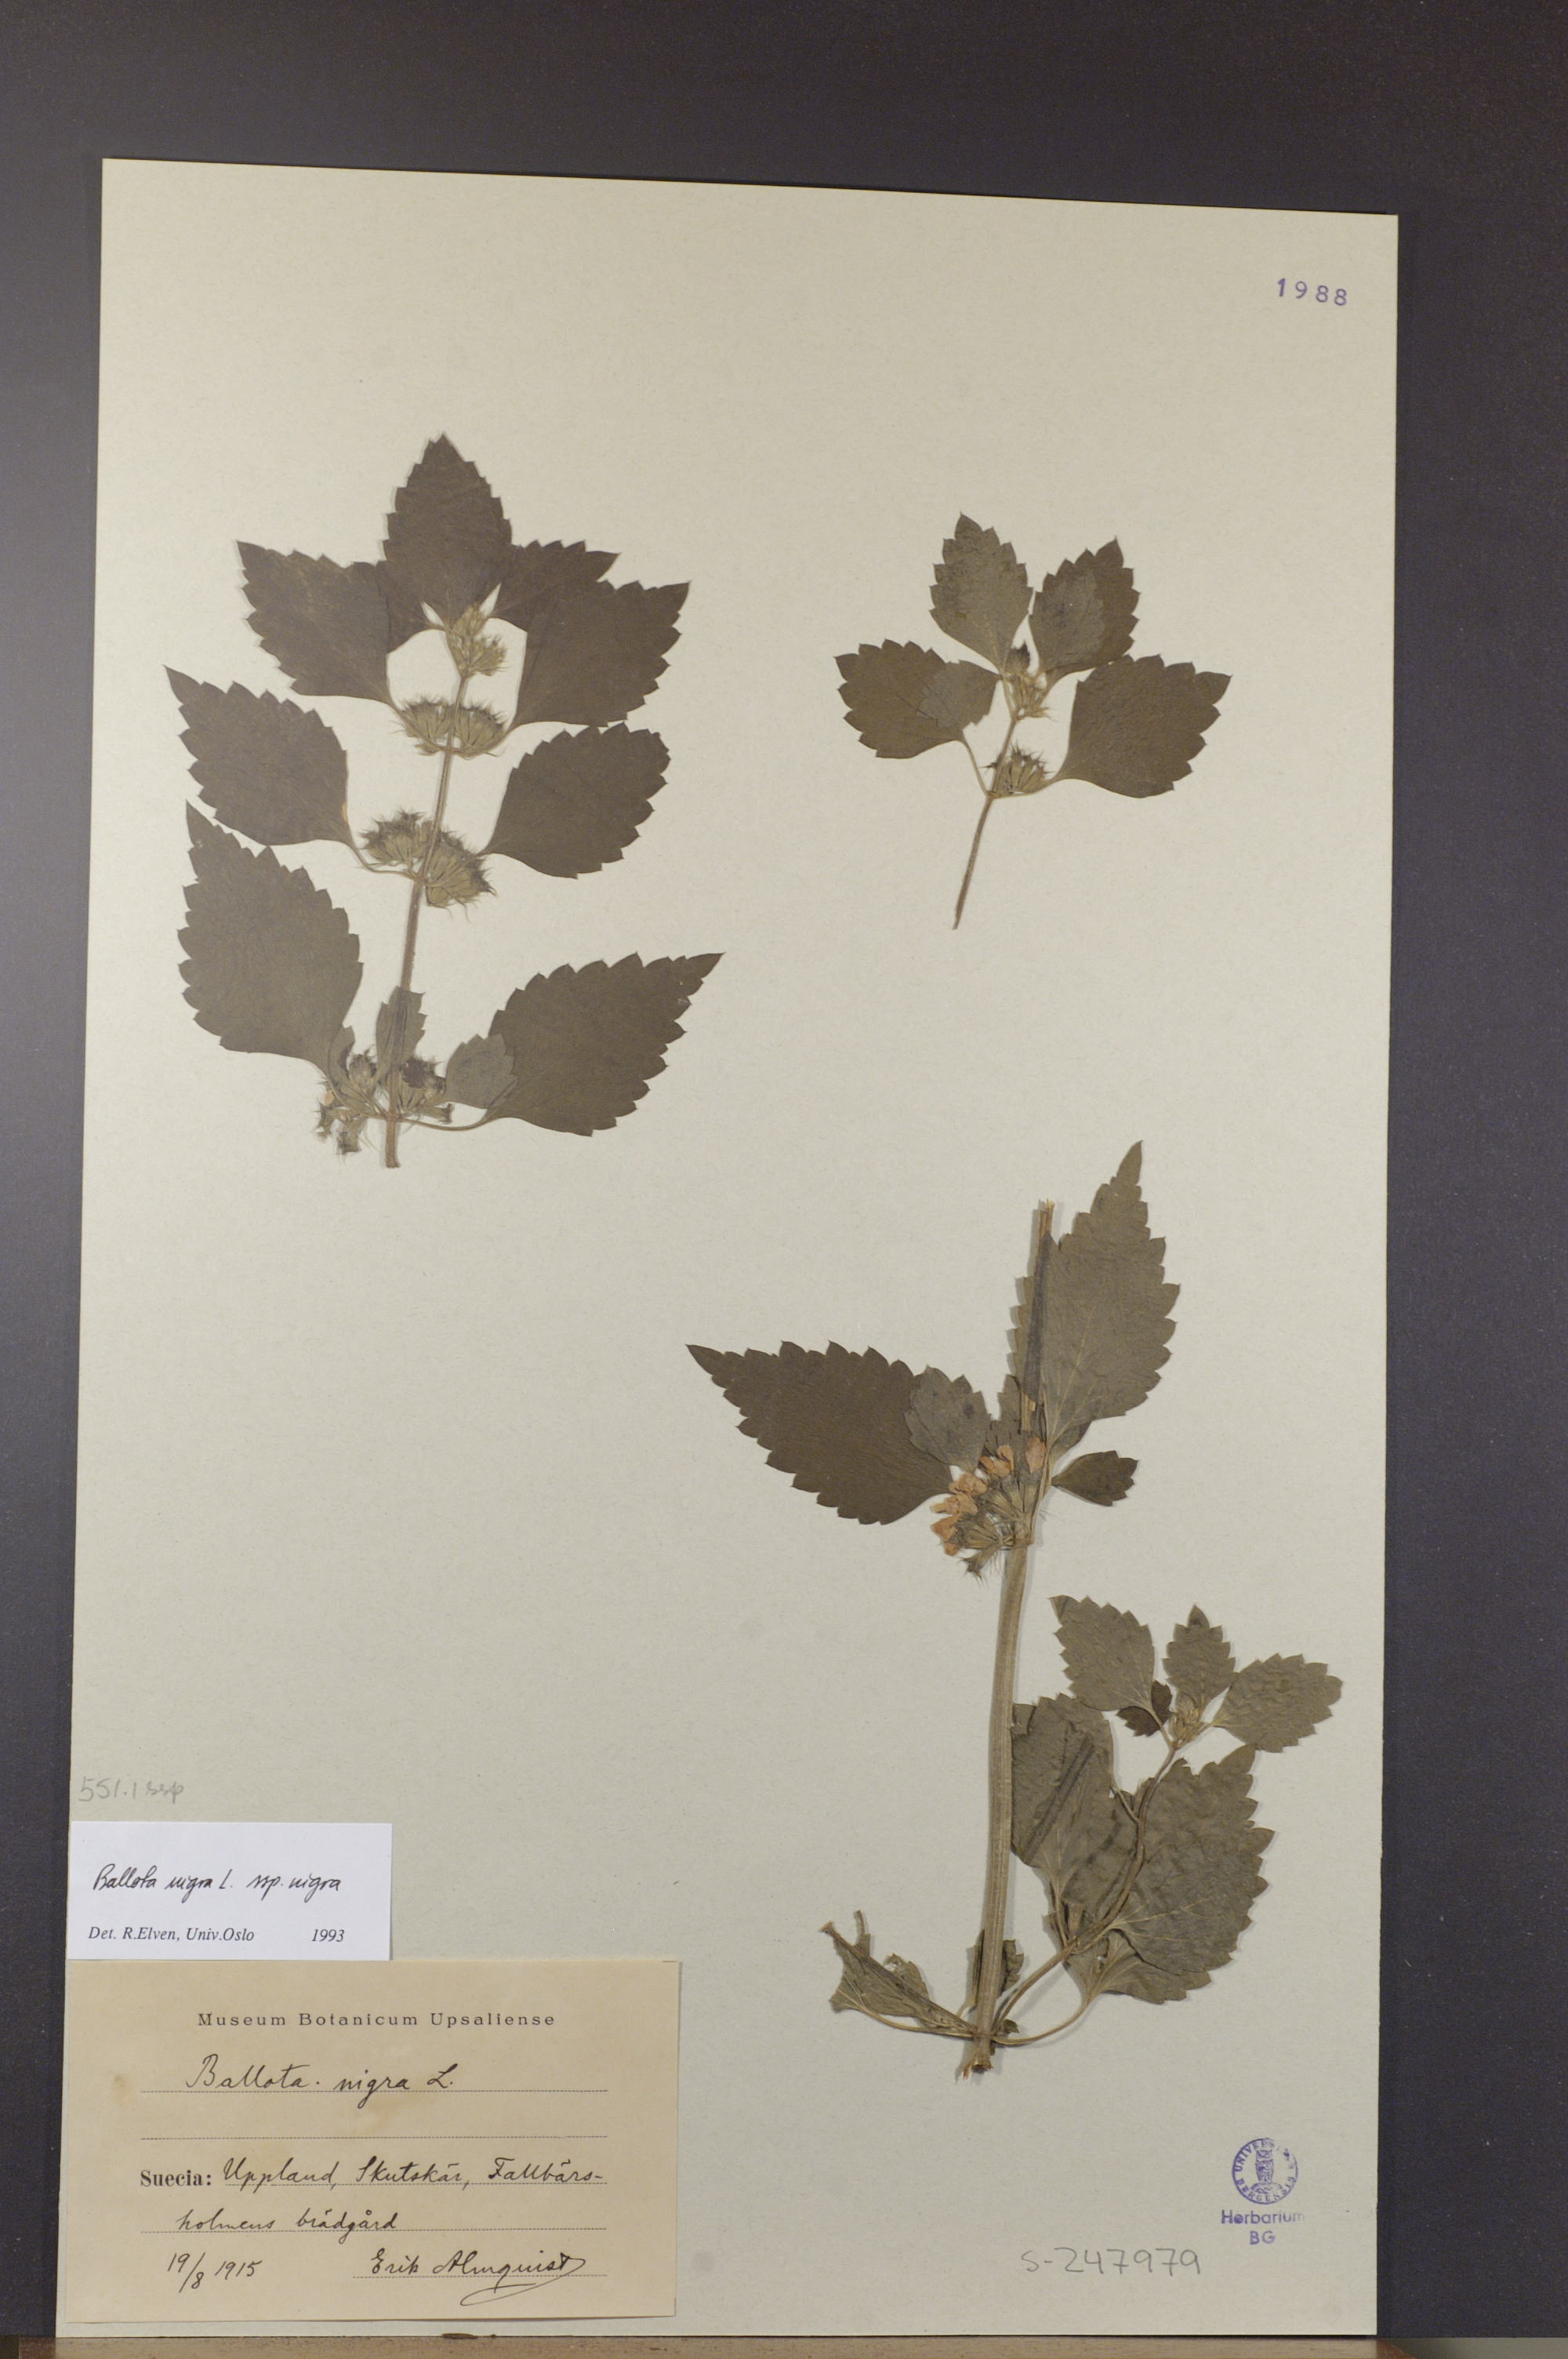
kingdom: Plantae
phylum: Tracheophyta
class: Magnoliopsida
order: Lamiales
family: Lamiaceae
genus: Ballota
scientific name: Ballota nigra
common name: Black horehound
